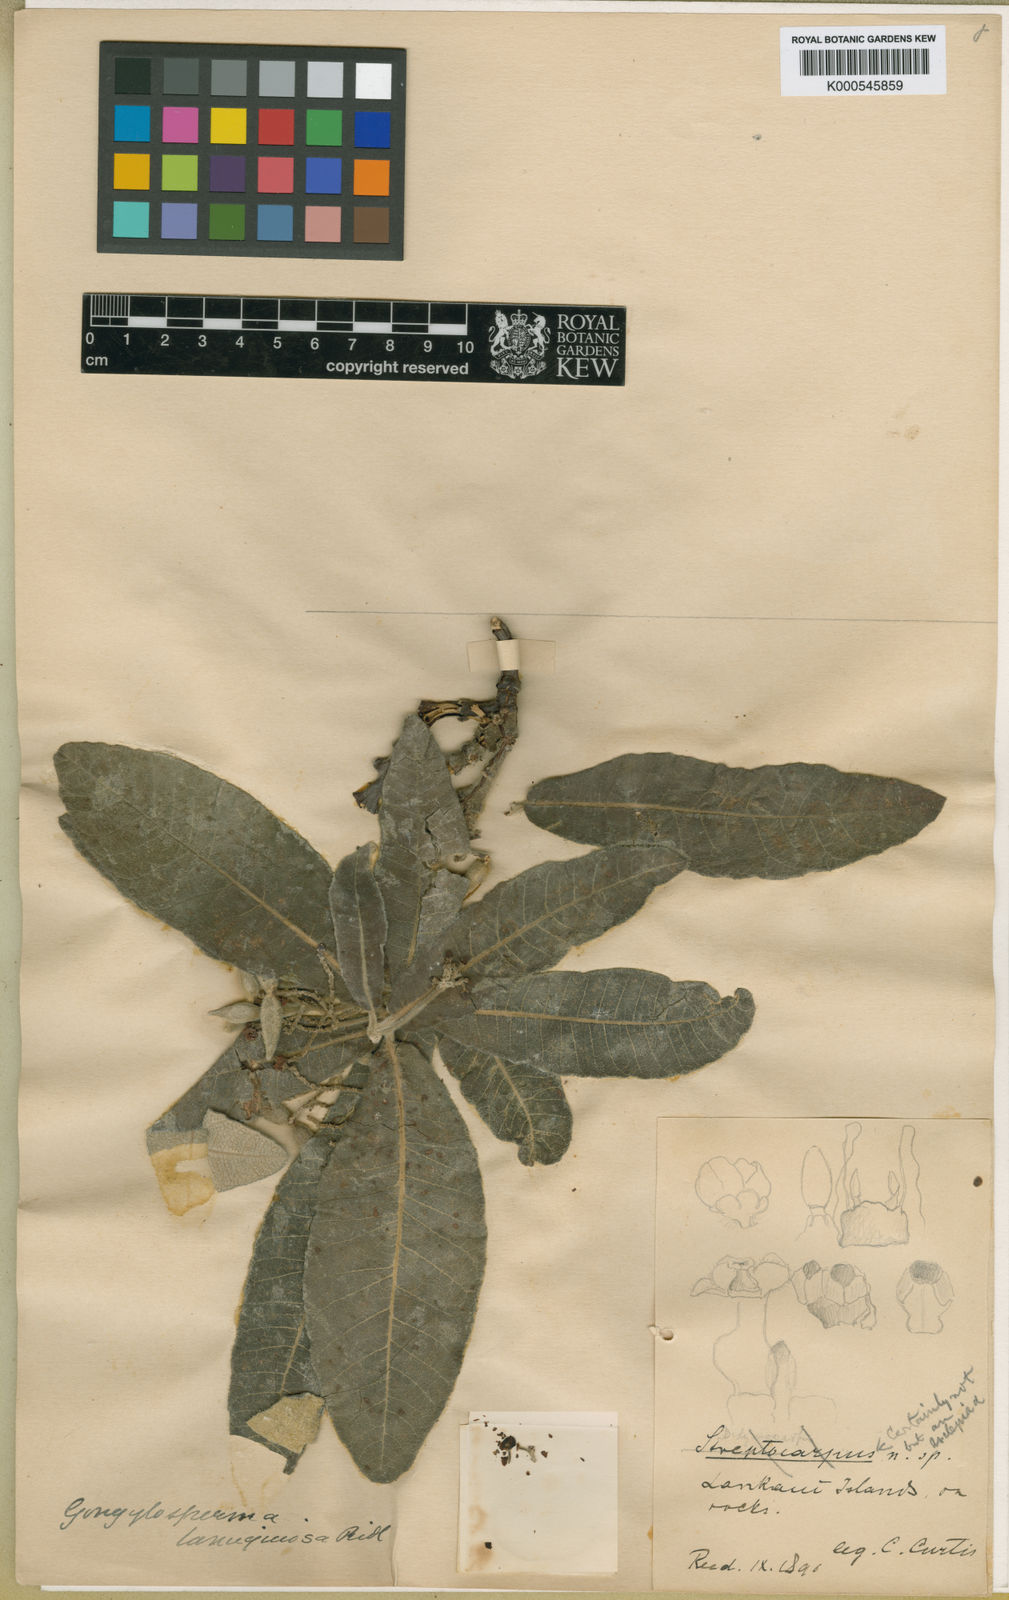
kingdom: Plantae
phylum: Tracheophyta
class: Magnoliopsida
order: Gentianales
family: Apocynaceae
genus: Streptocaulon
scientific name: Streptocaulon lanuginosa
